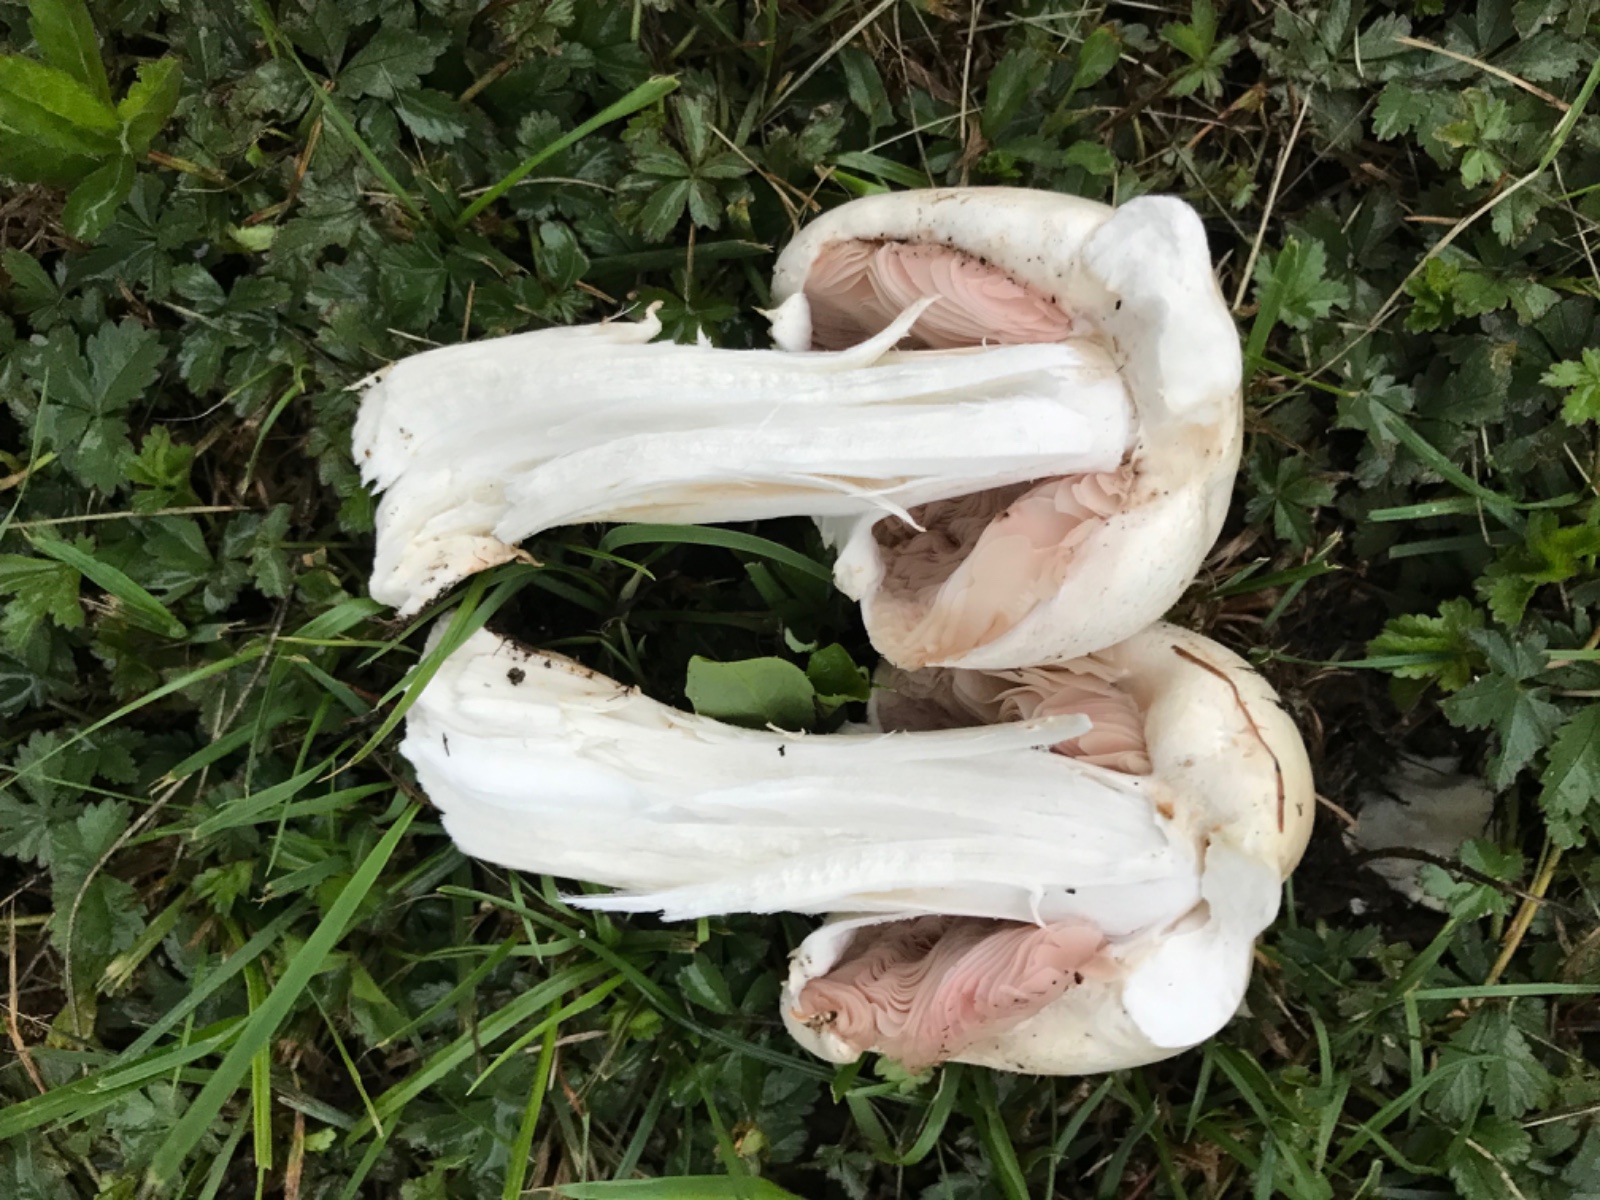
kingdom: Fungi
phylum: Basidiomycota
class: Agaricomycetes
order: Agaricales
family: Agaricaceae
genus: Agaricus
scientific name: Agaricus arvensis
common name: ager-champignon
